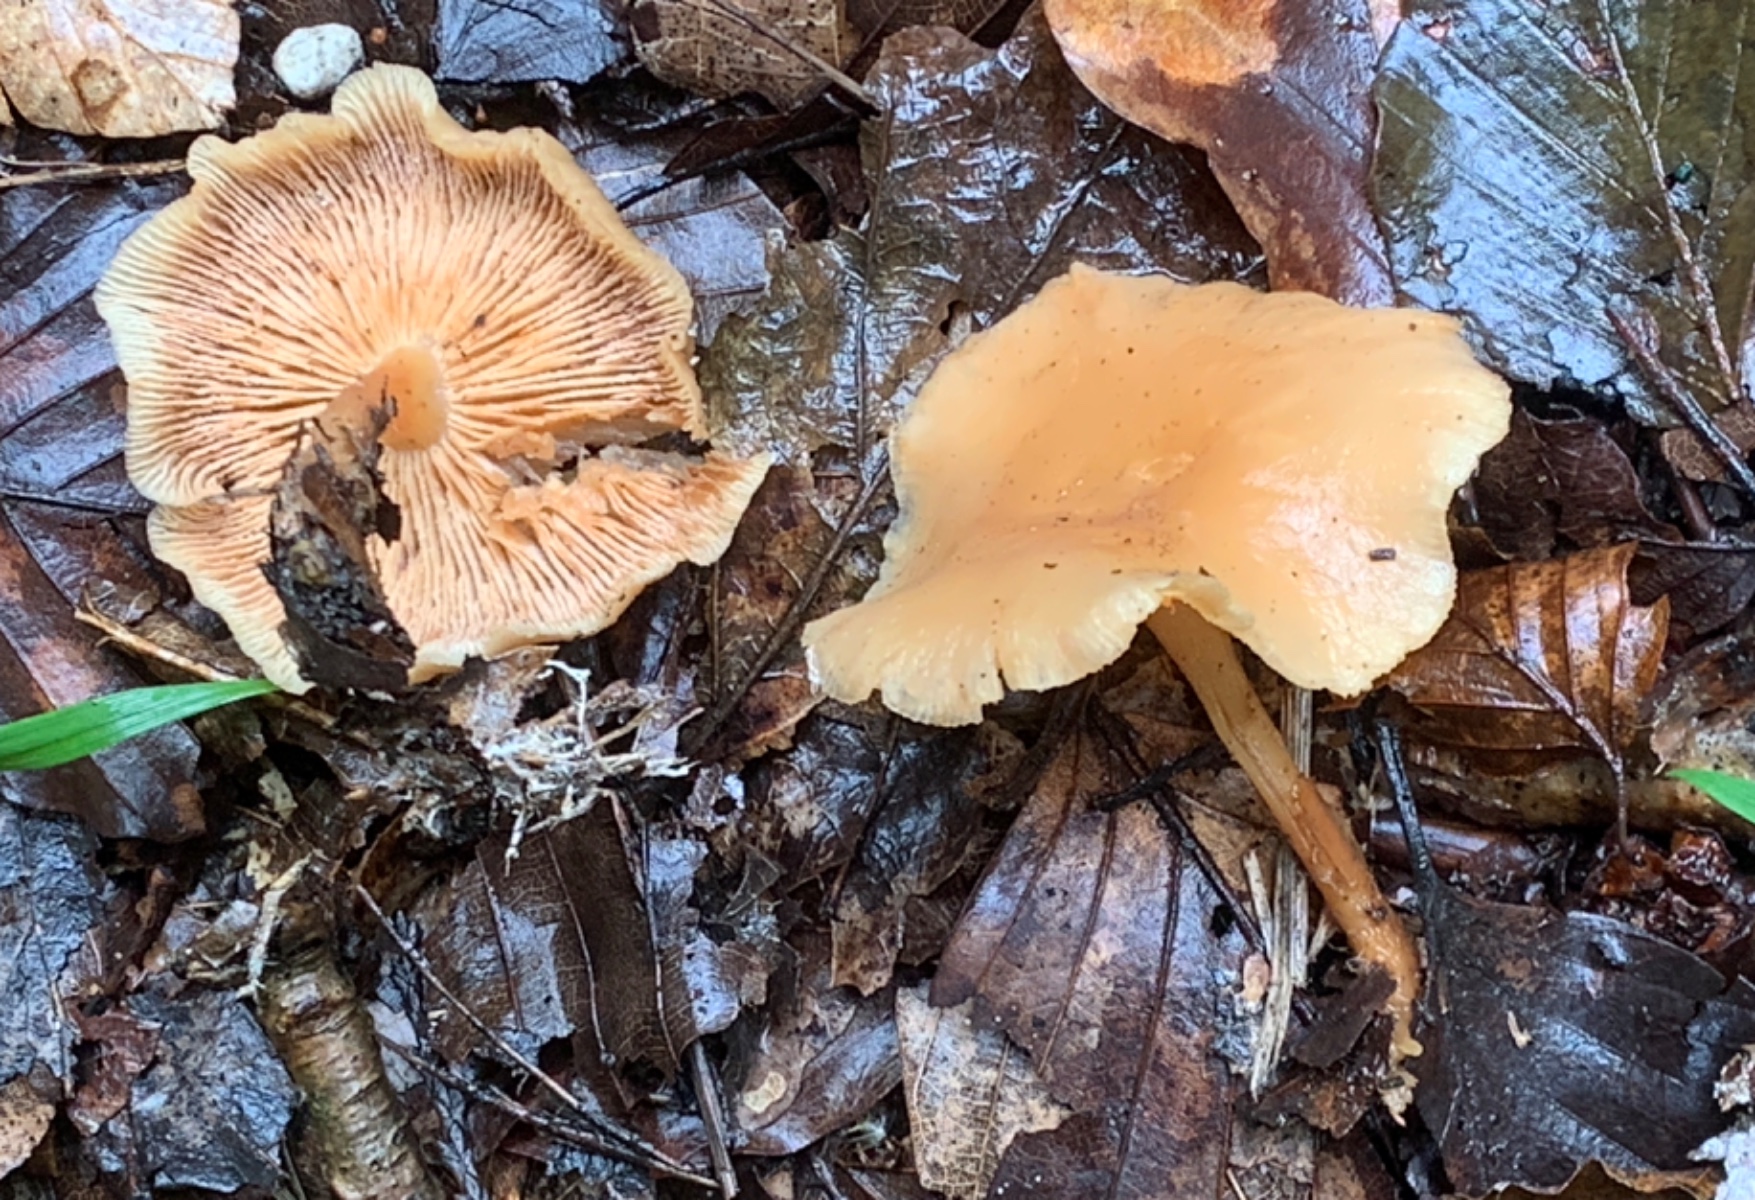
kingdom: Fungi
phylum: Basidiomycota
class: Agaricomycetes
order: Agaricales
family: Omphalotaceae
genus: Gymnopus
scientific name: Gymnopus dryophilus
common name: løv-fladhat
